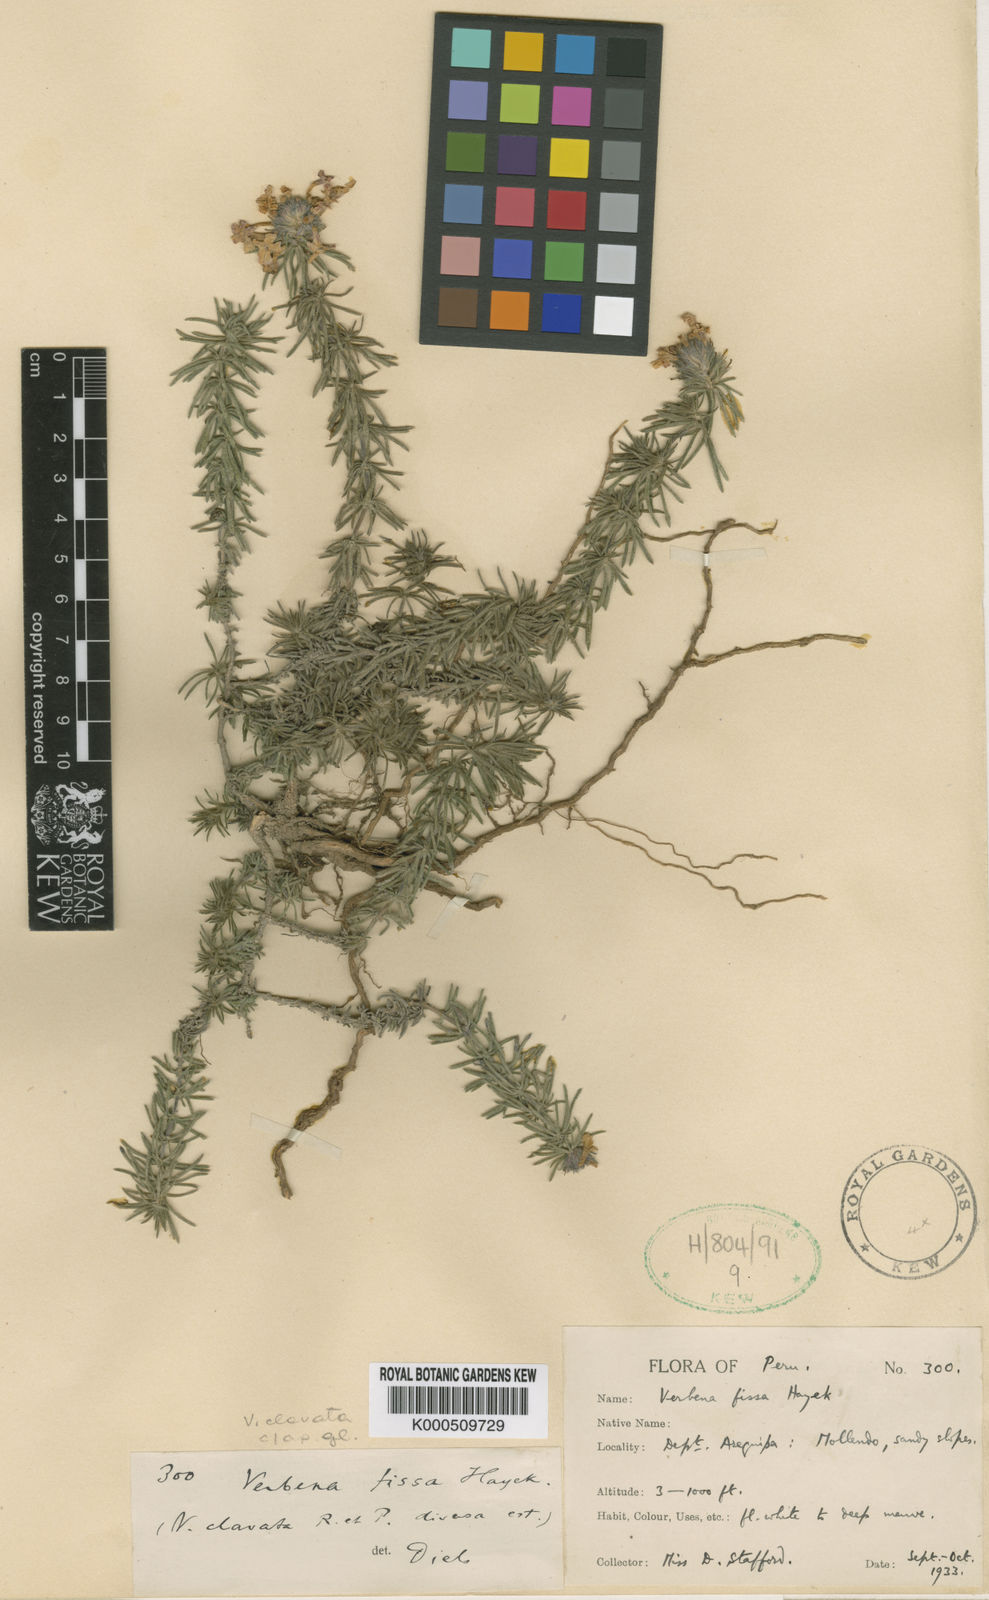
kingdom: Plantae
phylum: Tracheophyta
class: Magnoliopsida
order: Lamiales
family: Verbenaceae
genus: Junellia
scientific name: Junellia clavata
